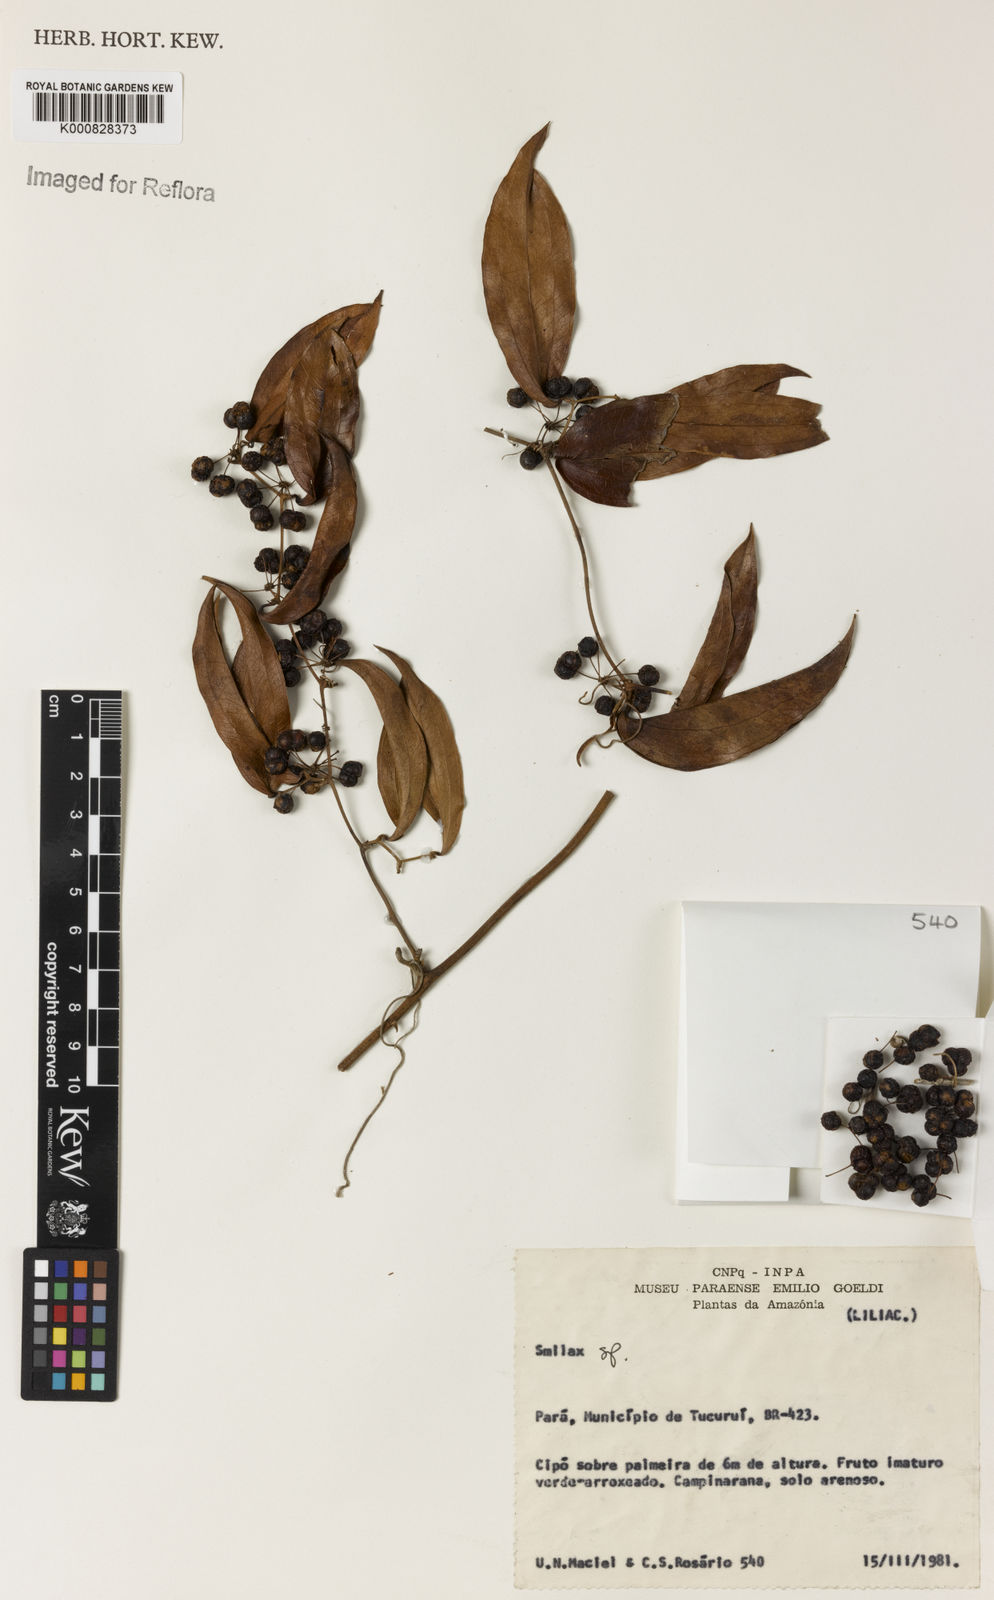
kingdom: Plantae
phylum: Tracheophyta
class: Liliopsida
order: Liliales
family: Smilacaceae
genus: Smilax
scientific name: Smilax
